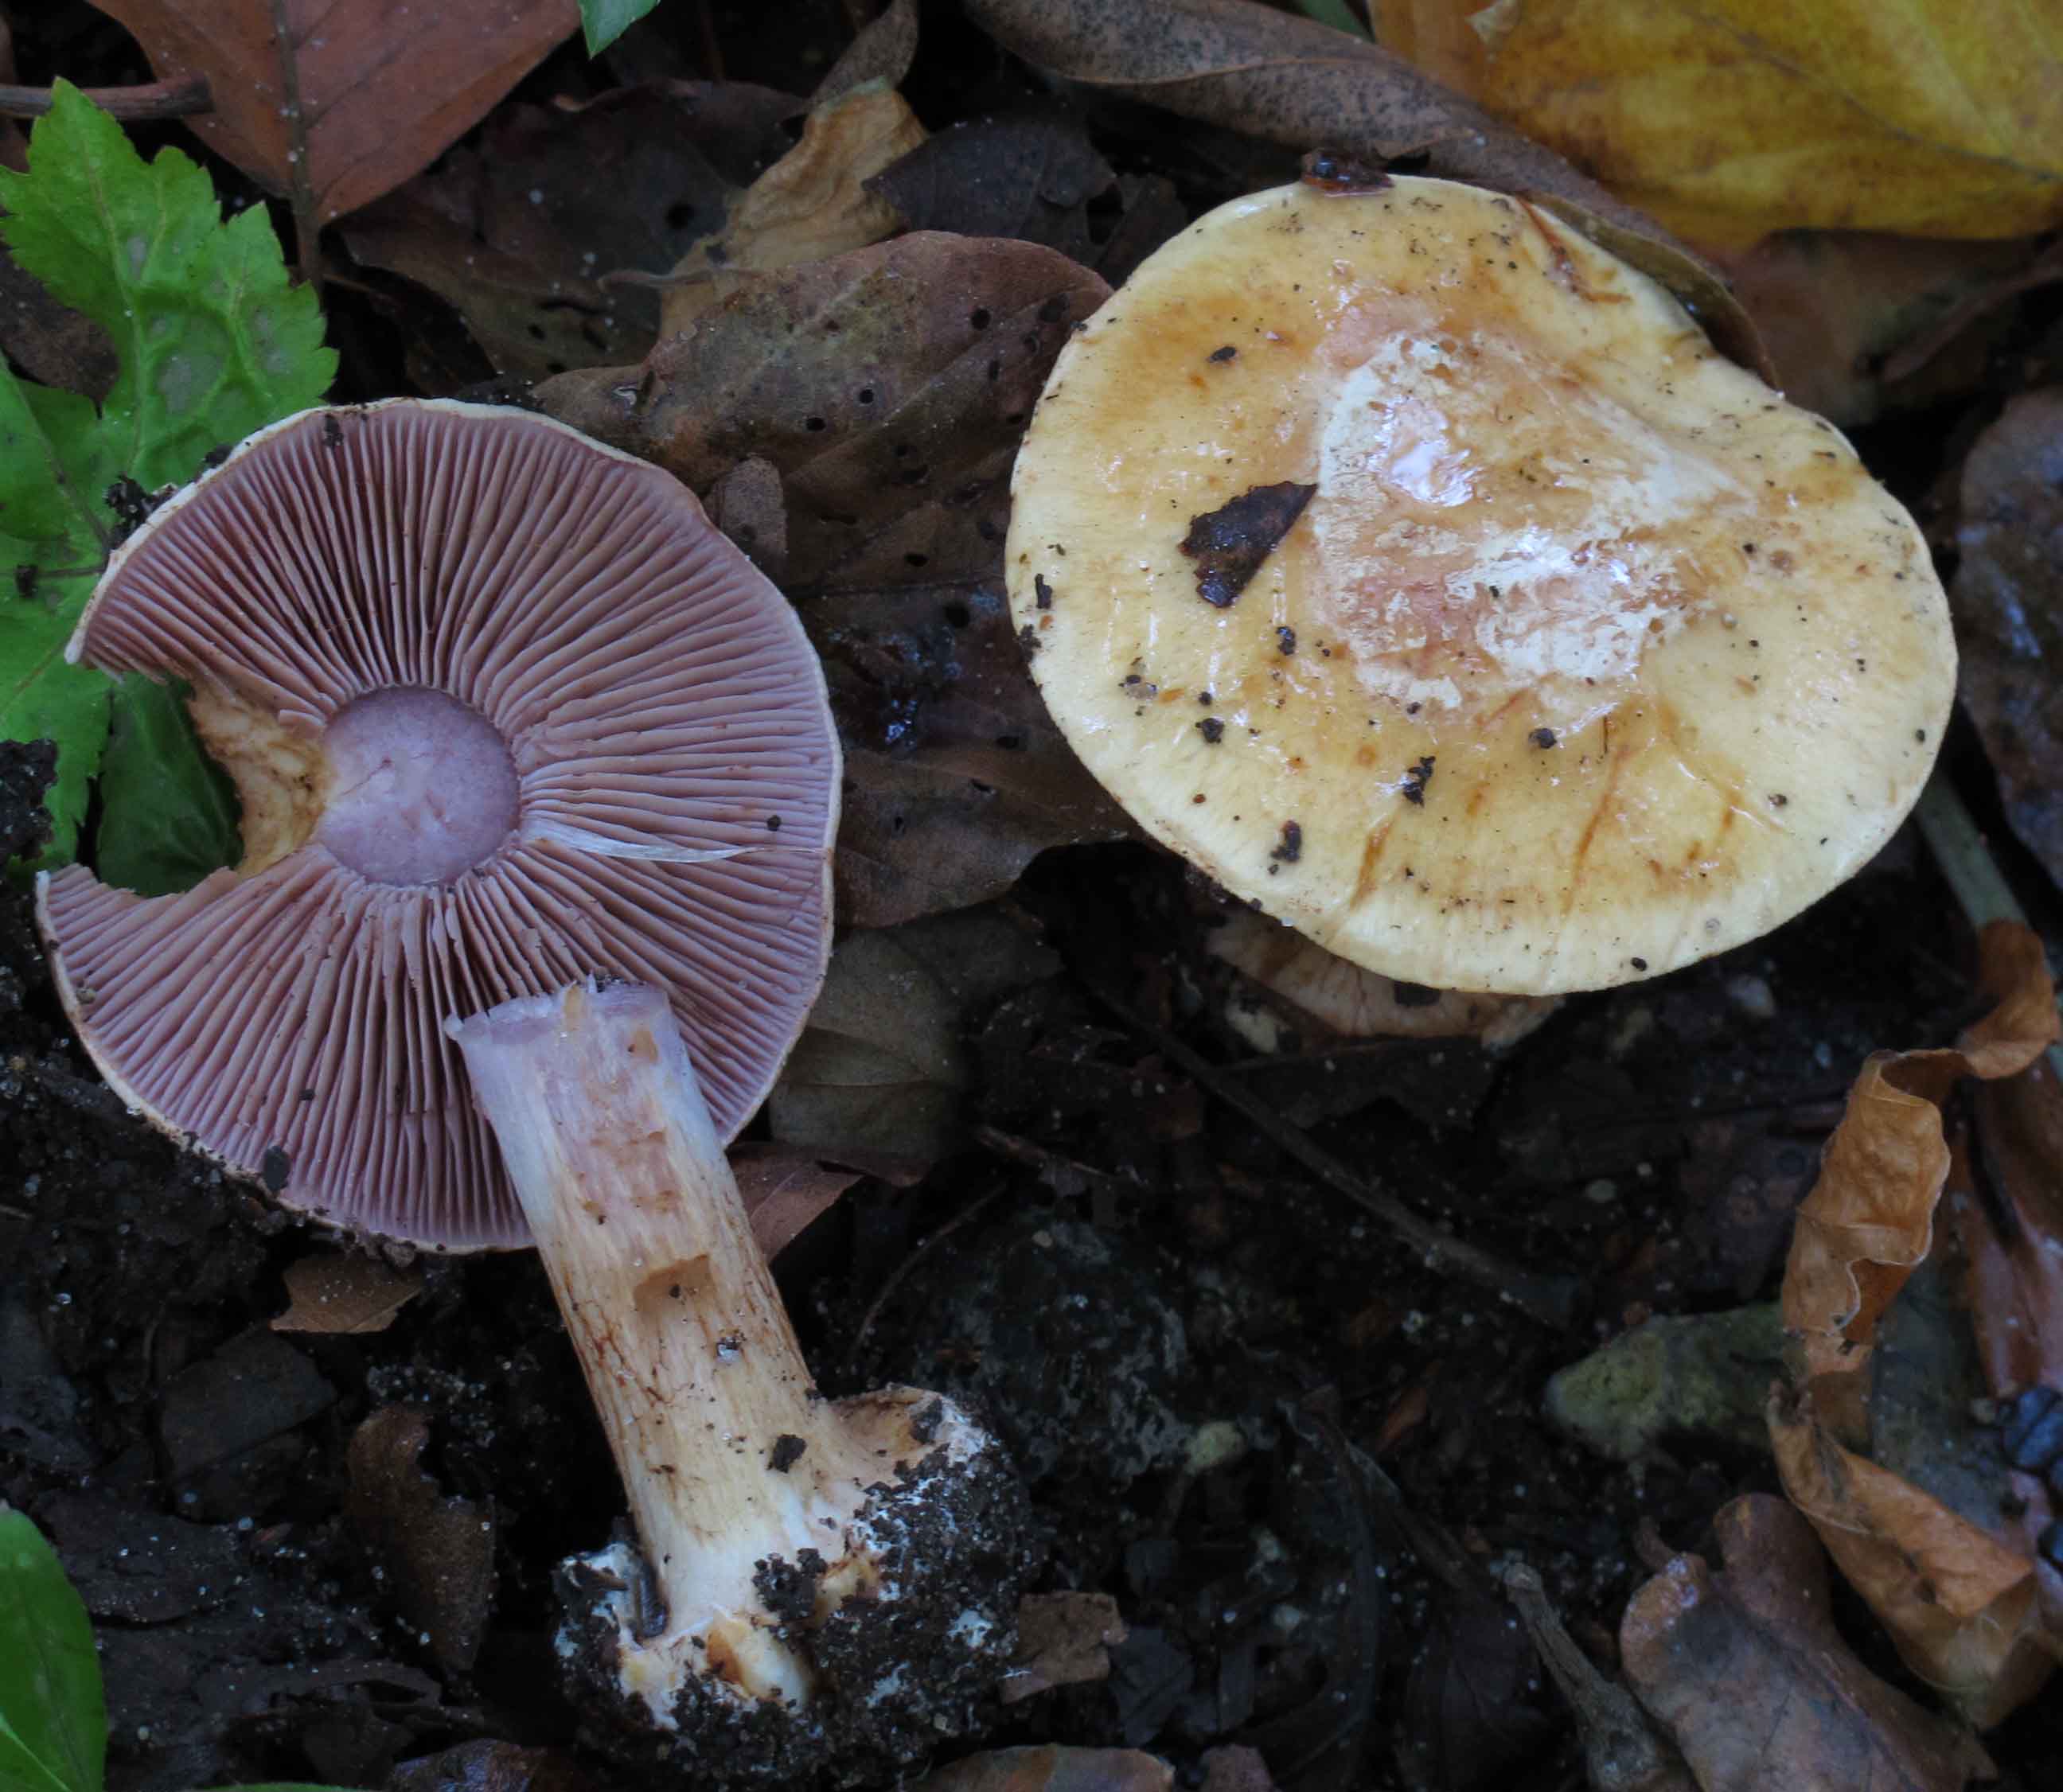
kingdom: Fungi
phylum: Basidiomycota
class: Agaricomycetes
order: Agaricales
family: Cortinariaceae
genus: Calonarius
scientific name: Calonarius platypus
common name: platfodet slørhat
